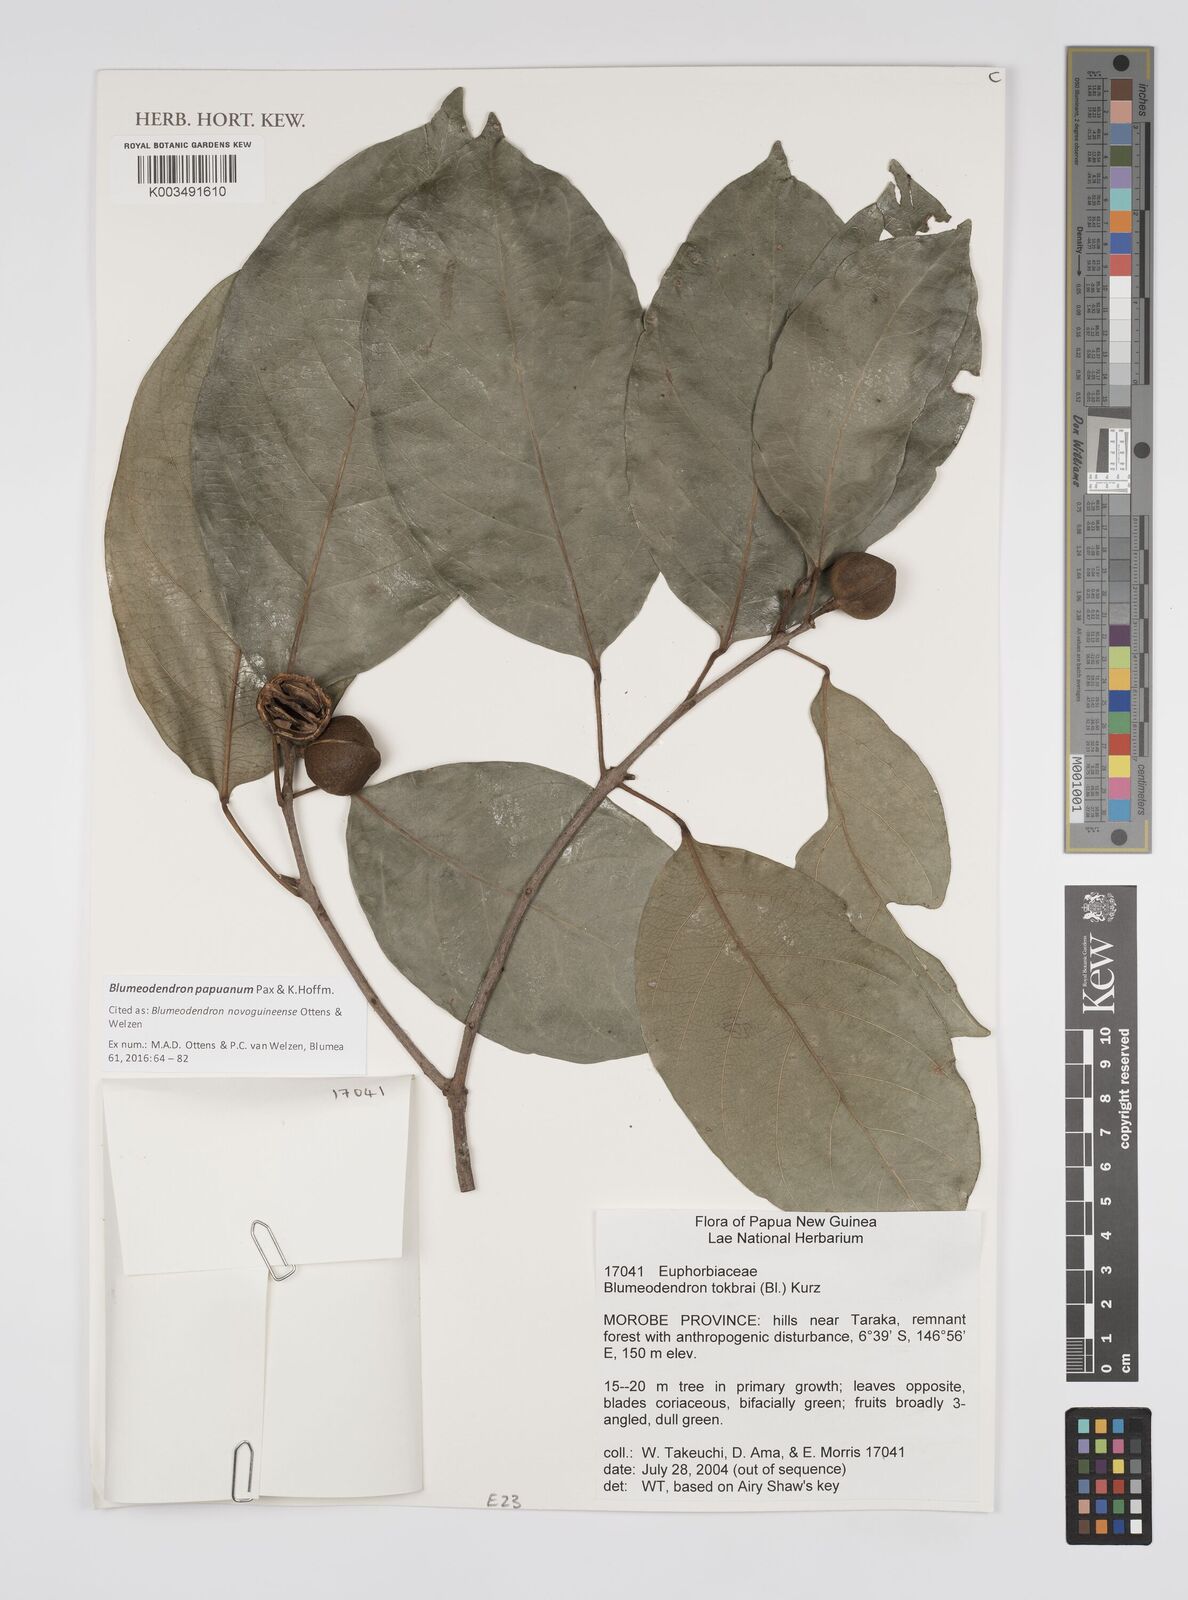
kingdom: Plantae
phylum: Tracheophyta
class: Magnoliopsida
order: Malpighiales
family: Euphorbiaceae
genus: Blumeodendron
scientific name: Blumeodendron papuanum
